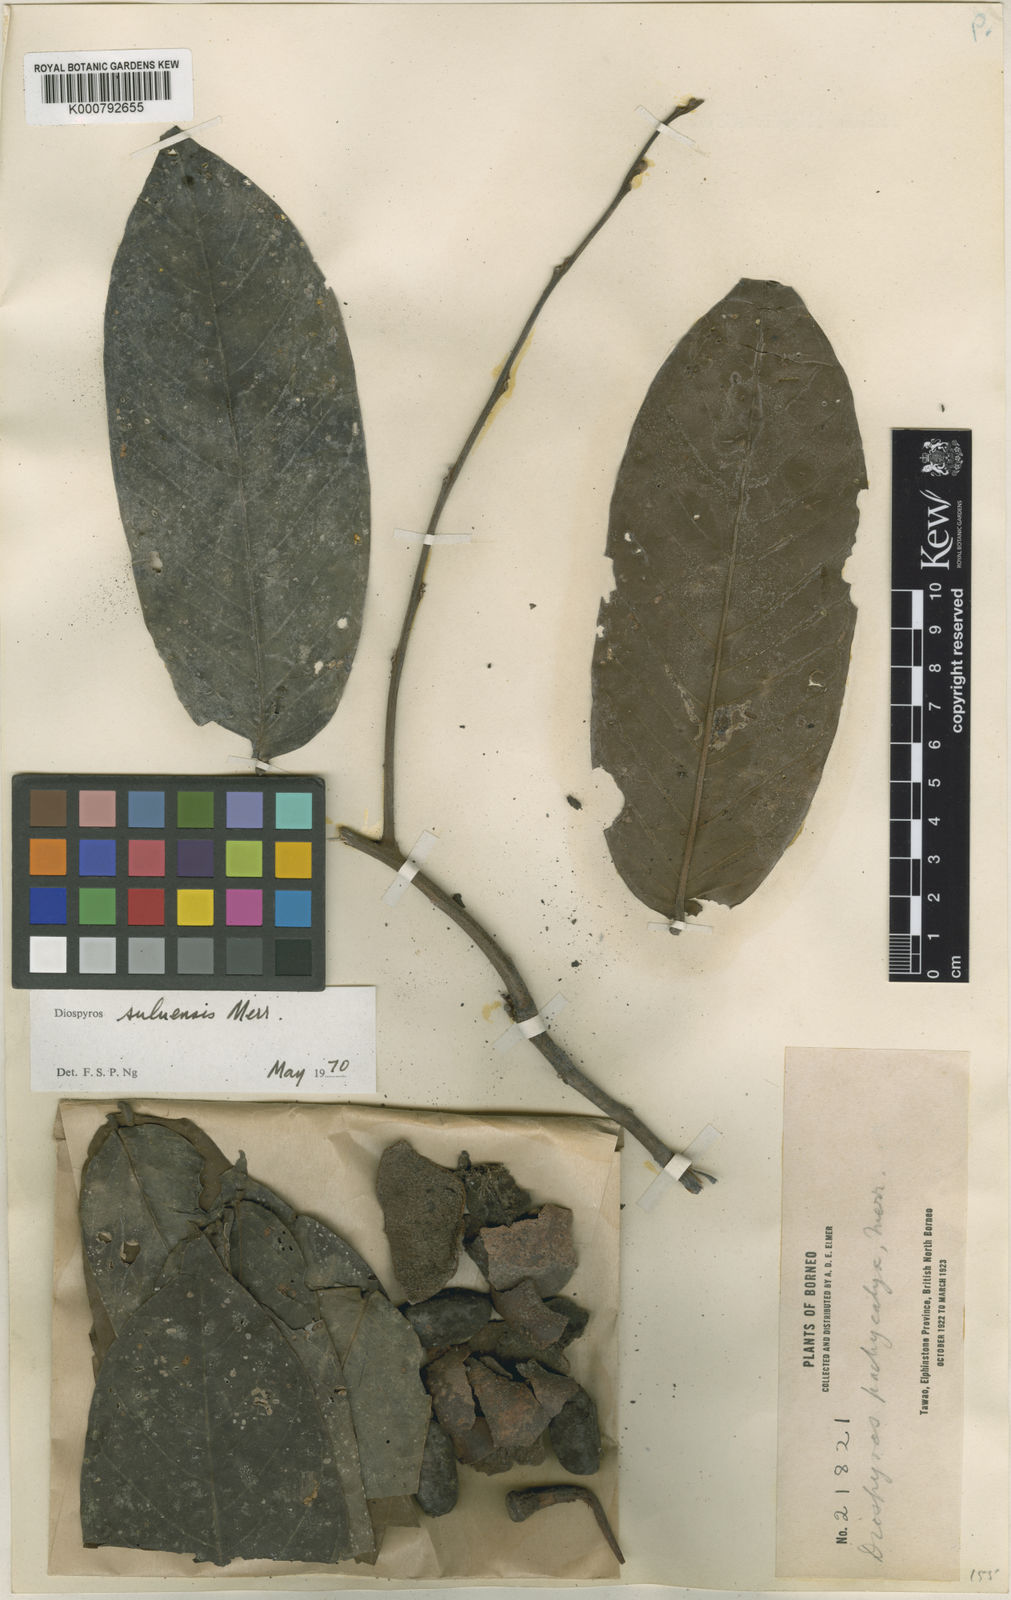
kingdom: Plantae
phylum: Tracheophyta
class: Magnoliopsida
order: Ericales
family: Ebenaceae
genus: Diospyros
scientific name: Diospyros macrophylla
